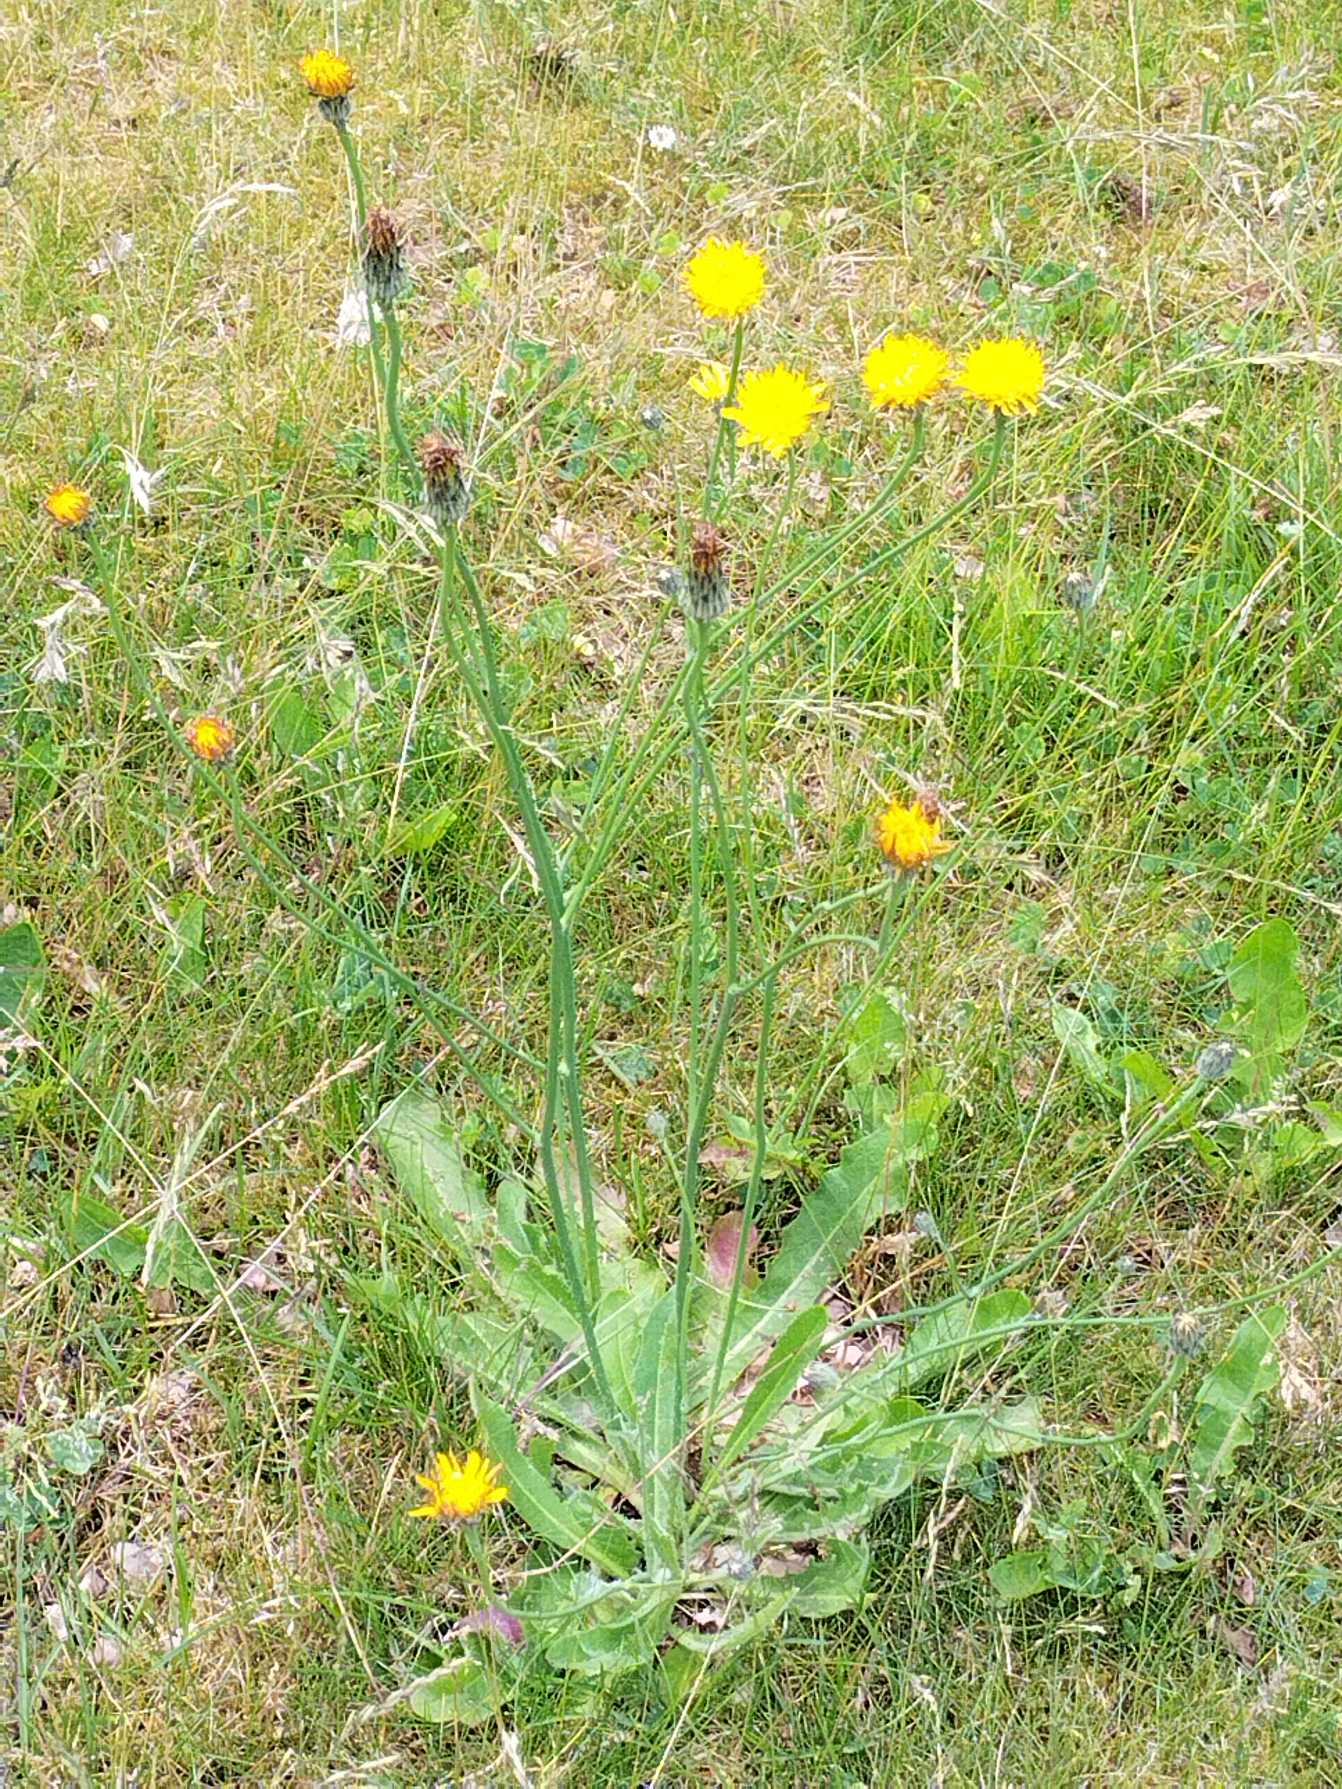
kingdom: Plantae
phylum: Tracheophyta
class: Magnoliopsida
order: Asterales
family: Asteraceae
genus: Hypochaeris
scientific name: Hypochaeris radicata
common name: Almindelig kongepen
